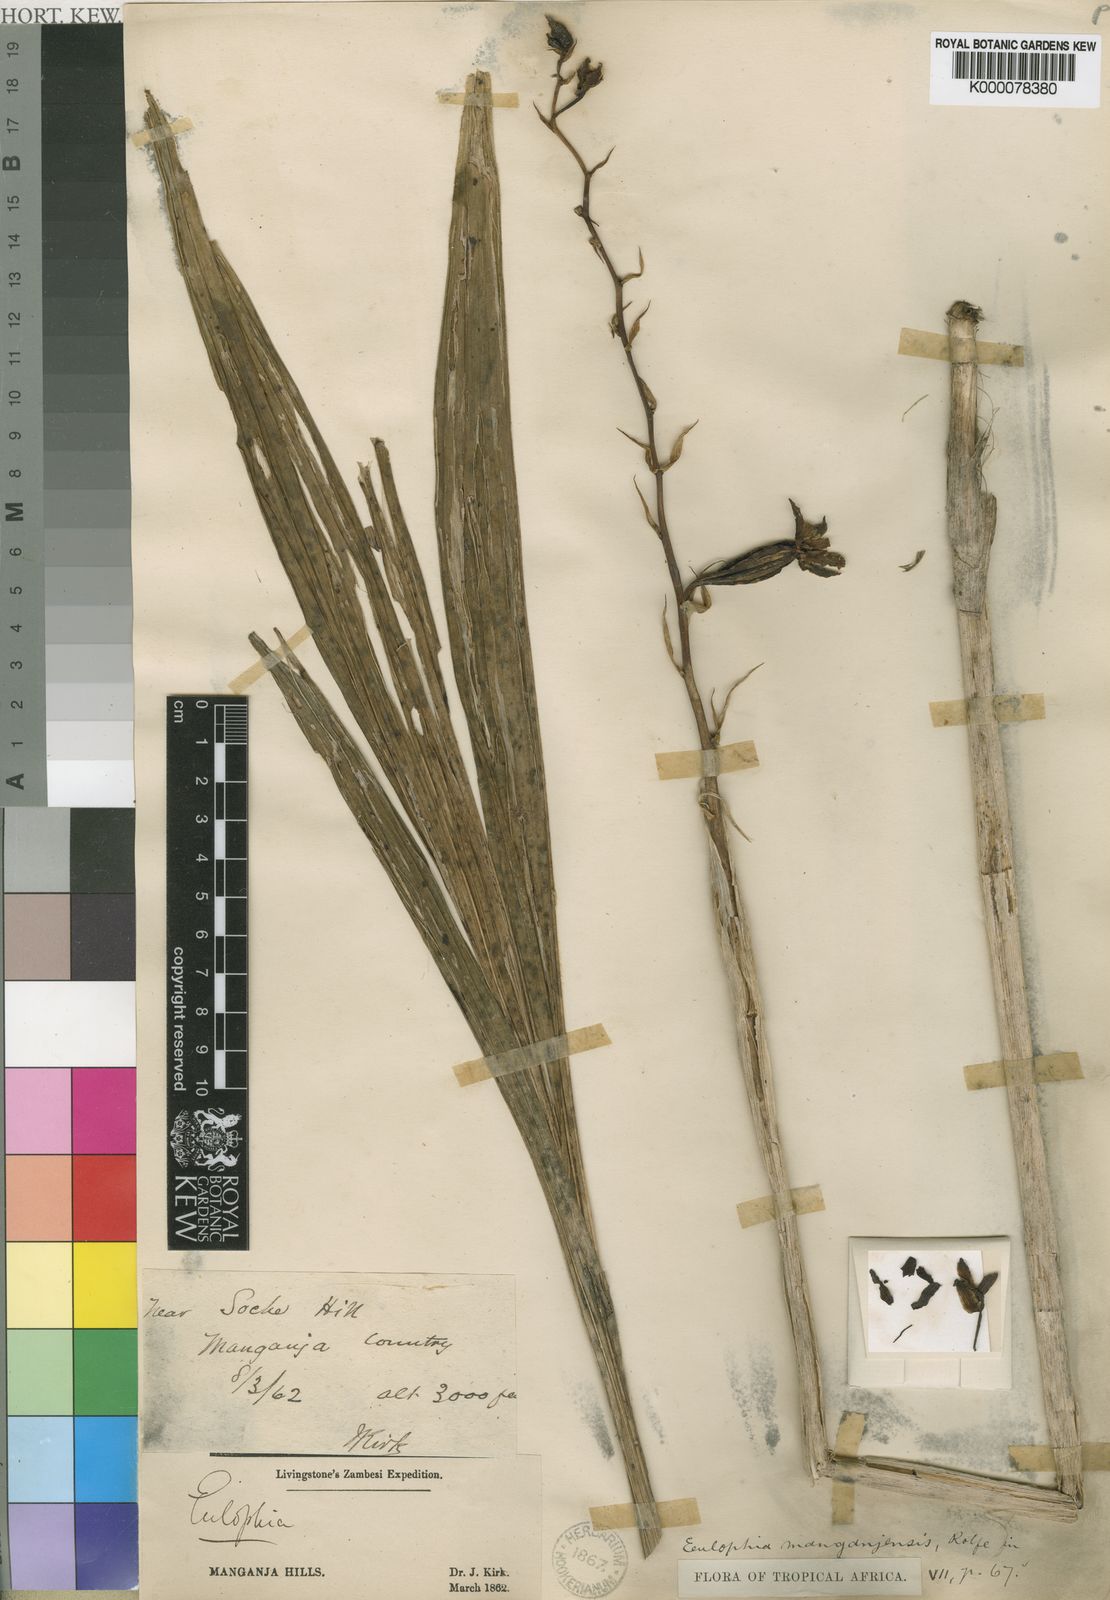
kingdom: Plantae
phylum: Tracheophyta
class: Liliopsida
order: Asparagales
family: Orchidaceae
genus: Eulophia
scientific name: Eulophia streptopetala
